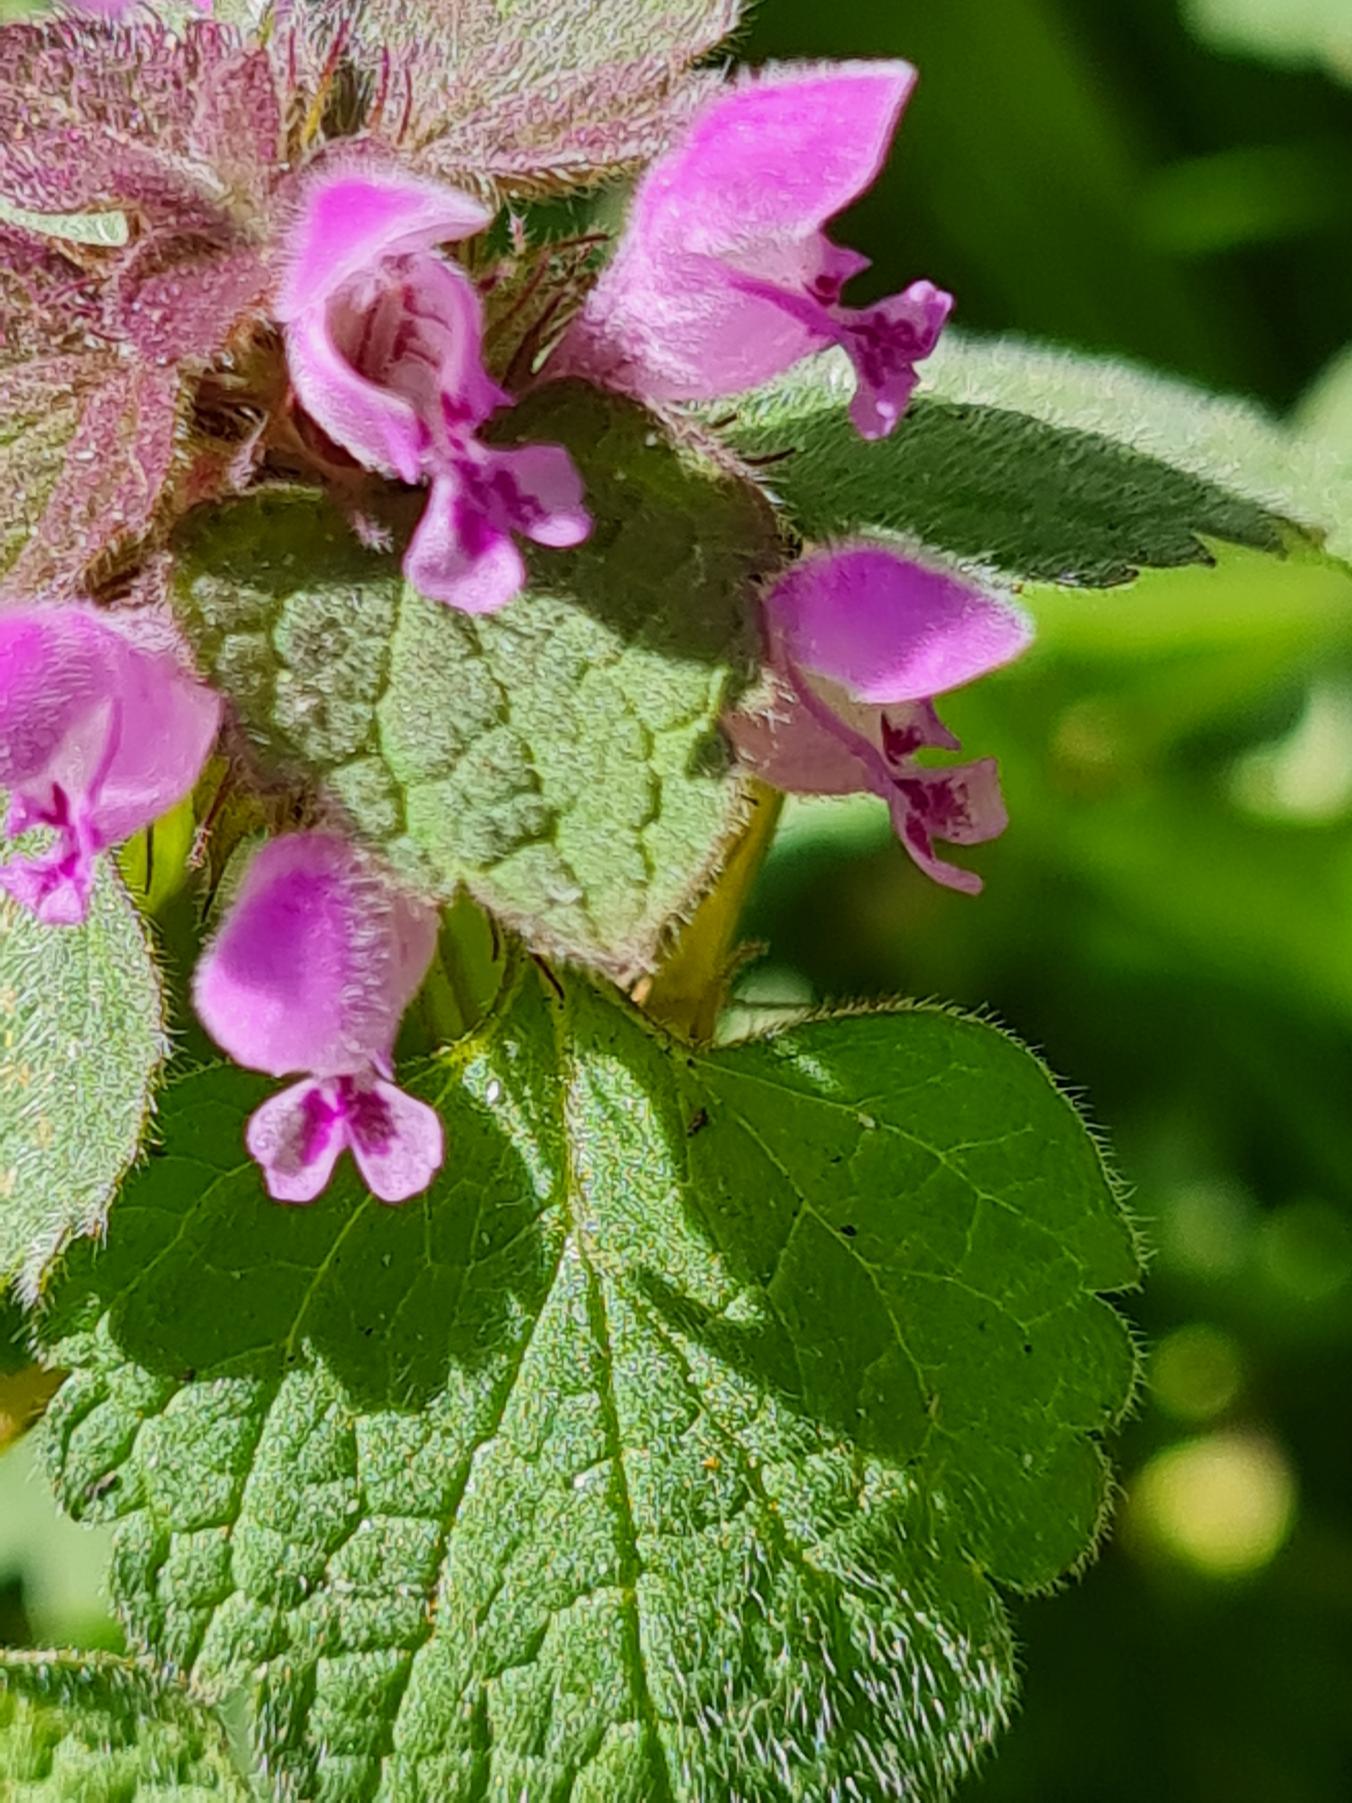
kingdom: Plantae
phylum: Tracheophyta
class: Magnoliopsida
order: Lamiales
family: Lamiaceae
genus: Lamium
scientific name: Lamium purpureum
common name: Rød tvetand
